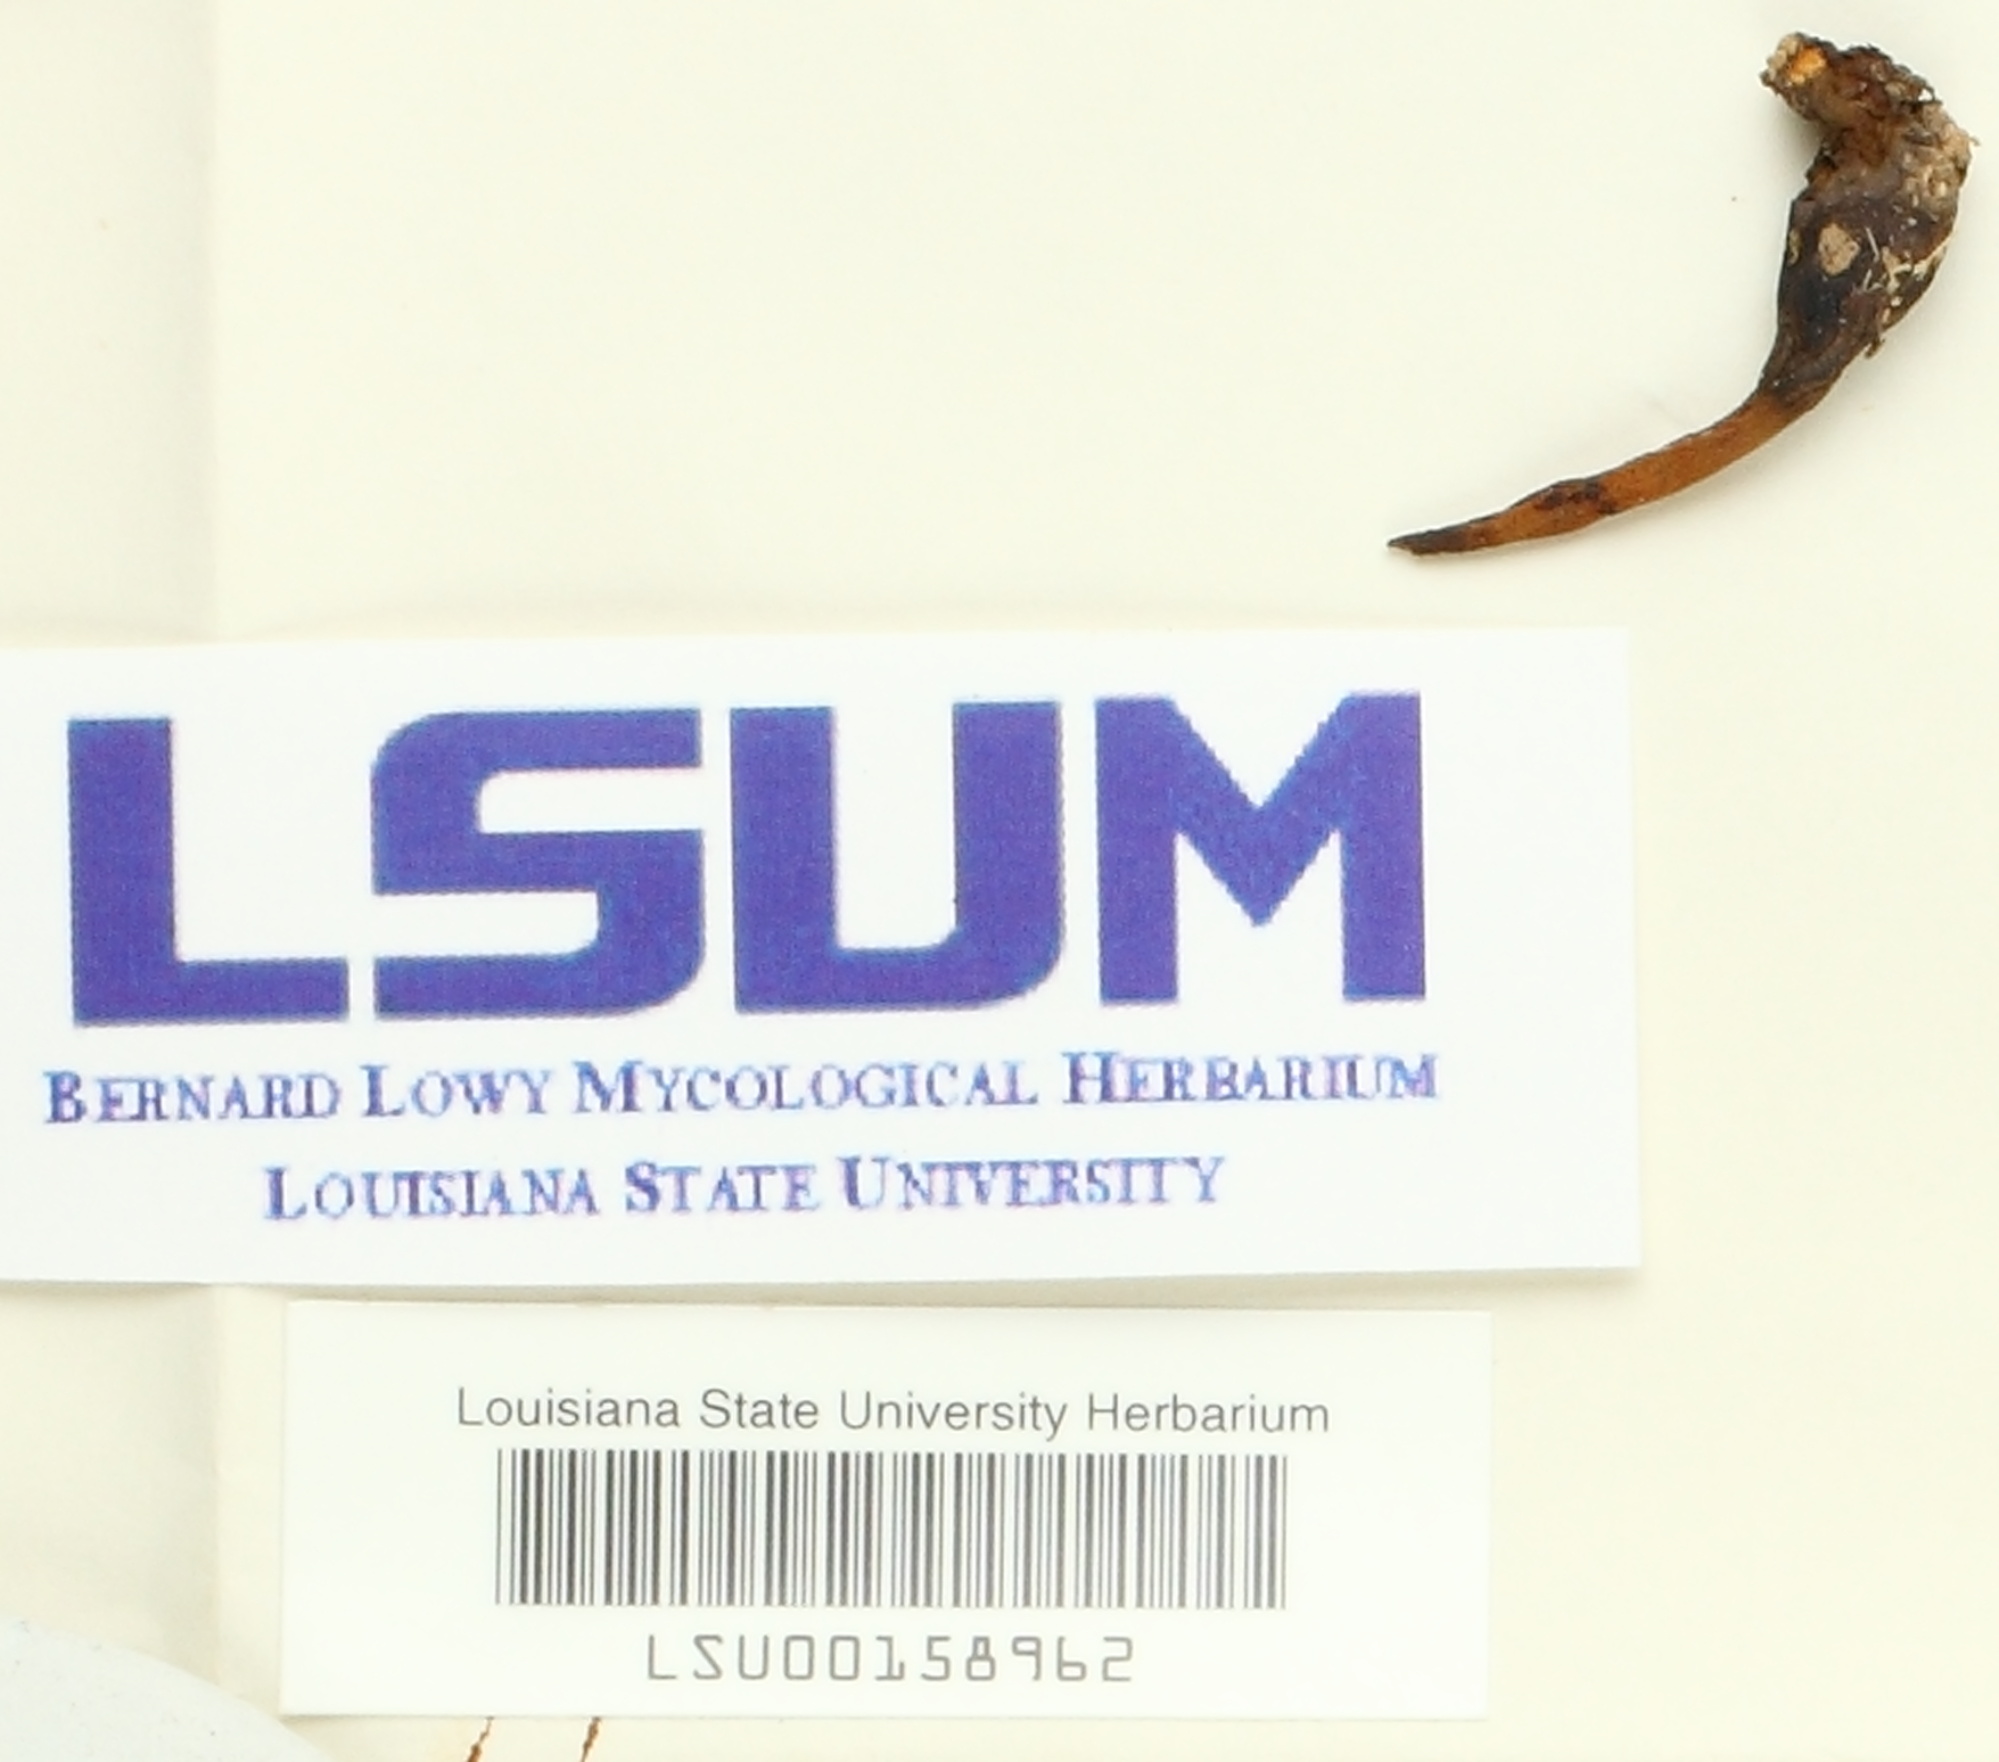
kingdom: Fungi
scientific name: Fungi
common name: Fungi
